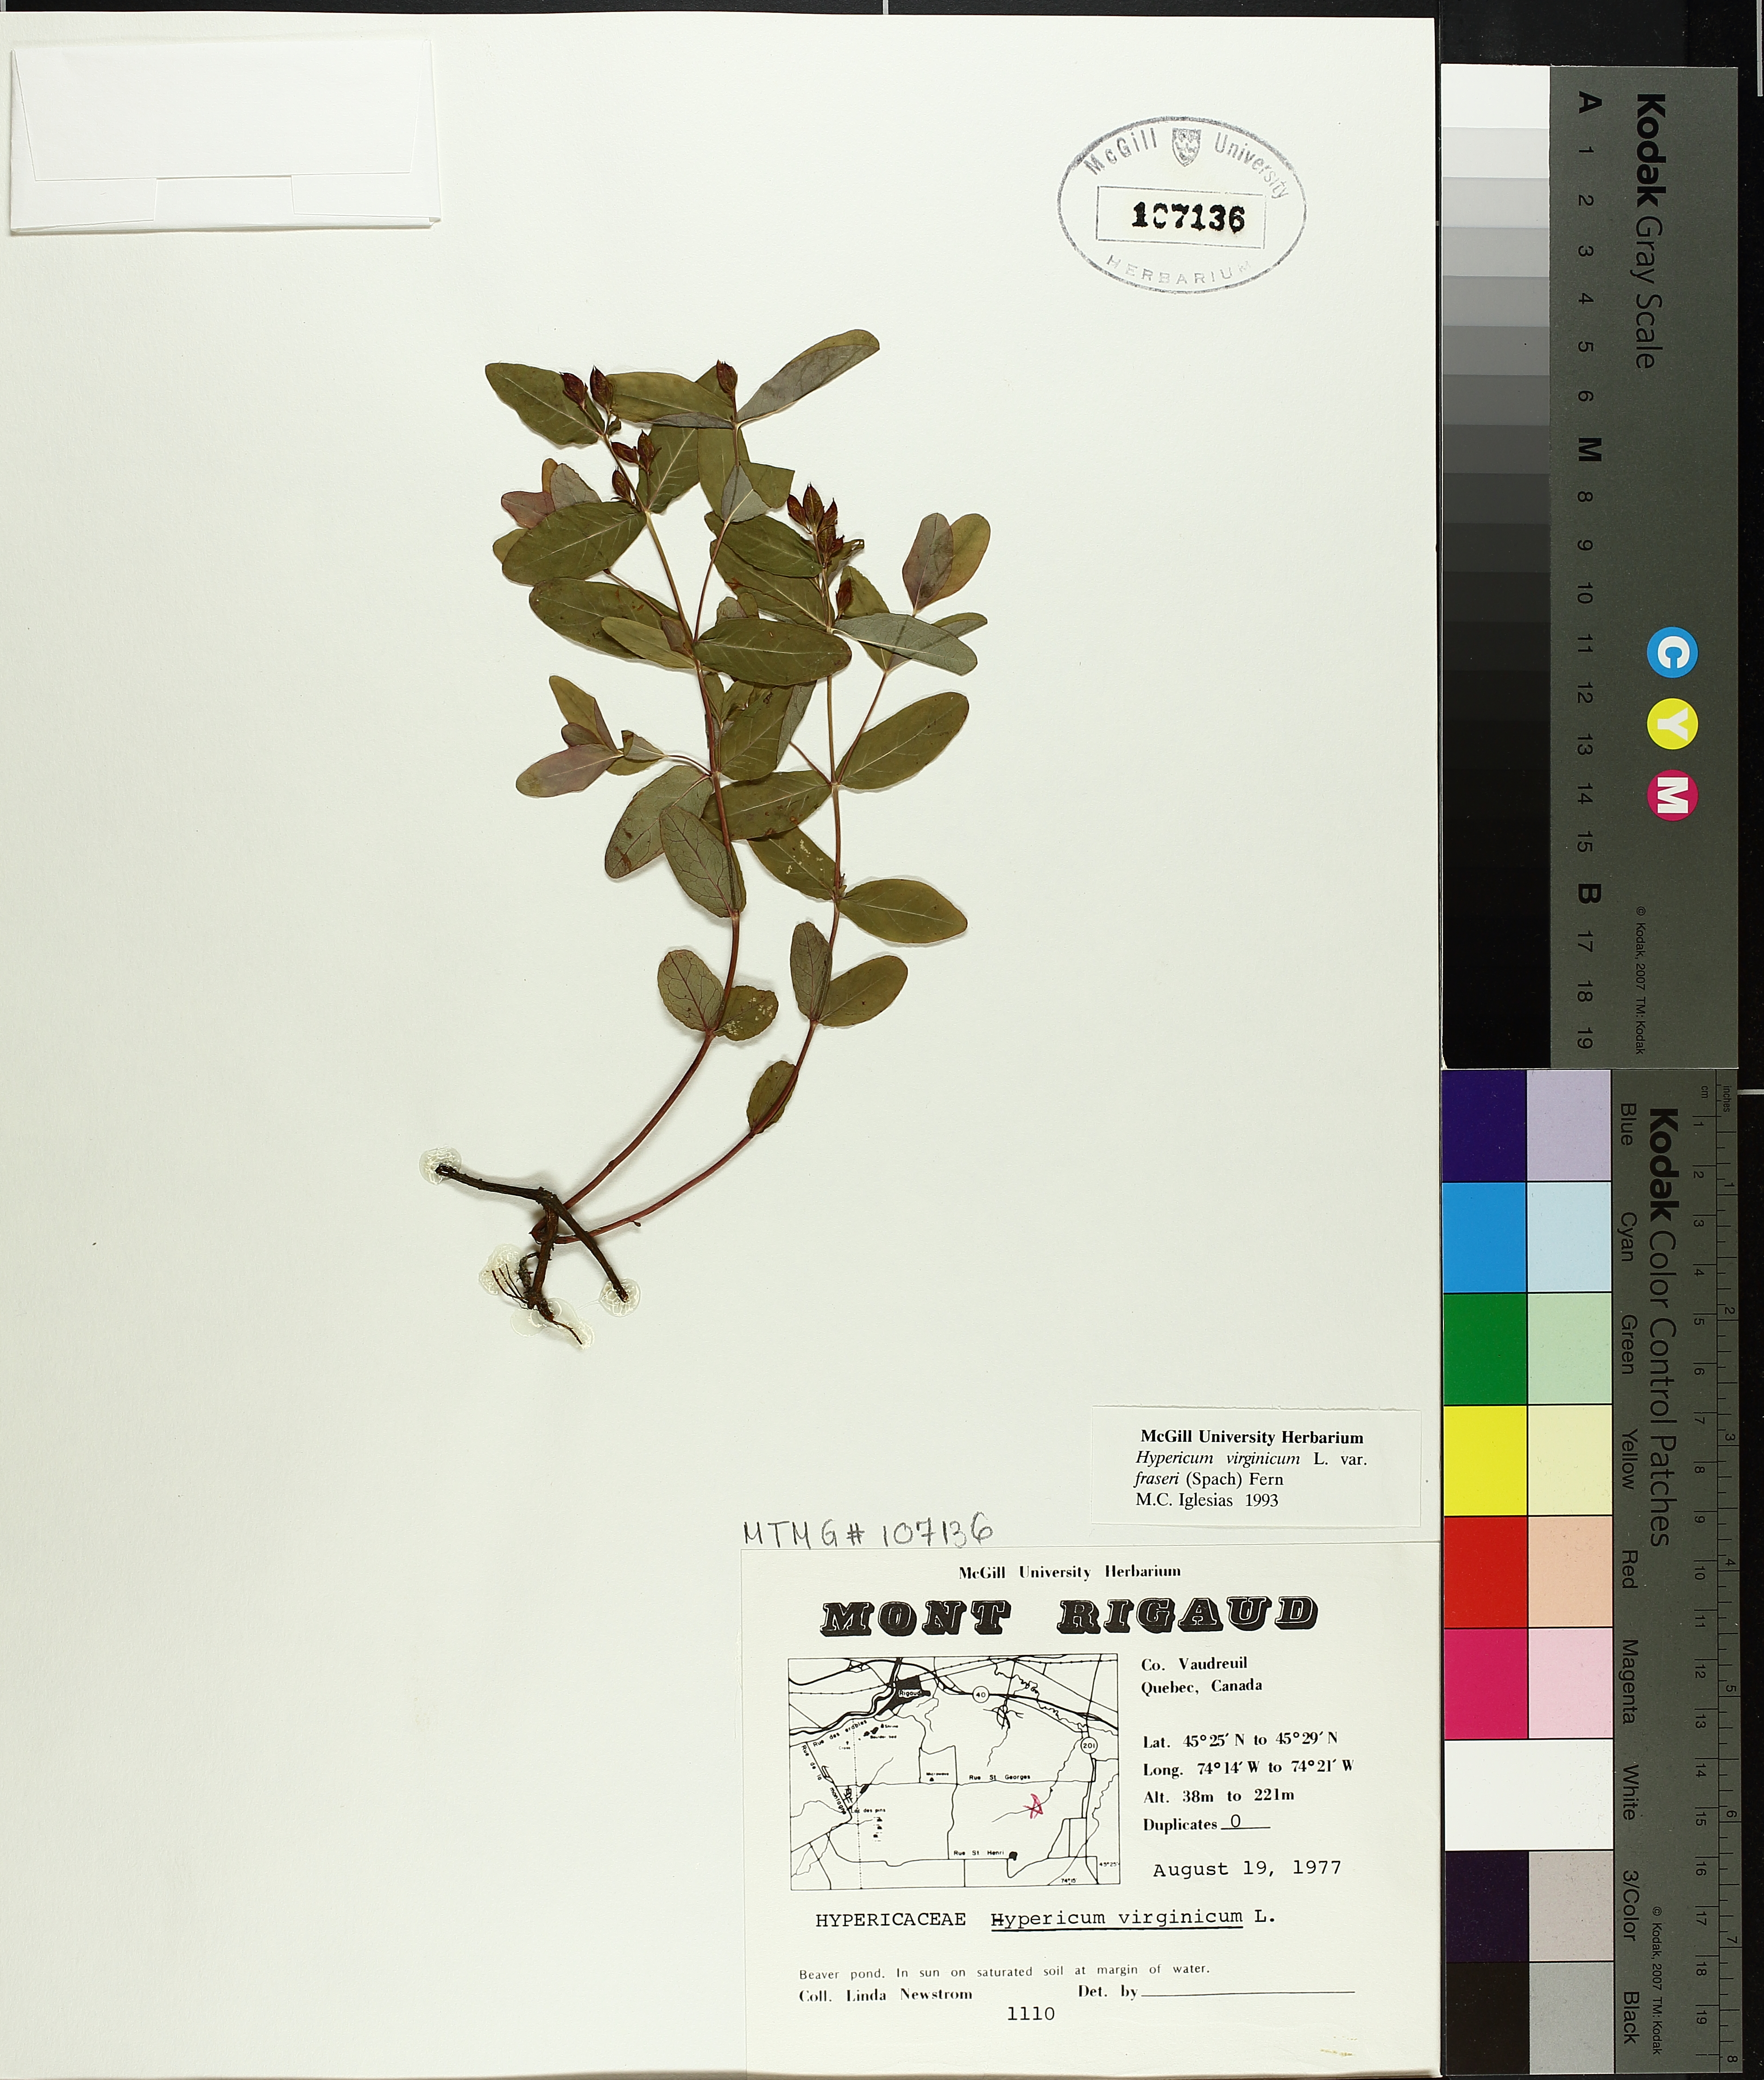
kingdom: Plantae
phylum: Tracheophyta
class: Magnoliopsida
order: Malpighiales
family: Hypericaceae
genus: Triadenum
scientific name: Triadenum fraseri
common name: Fraser's marsh st. johnswort
